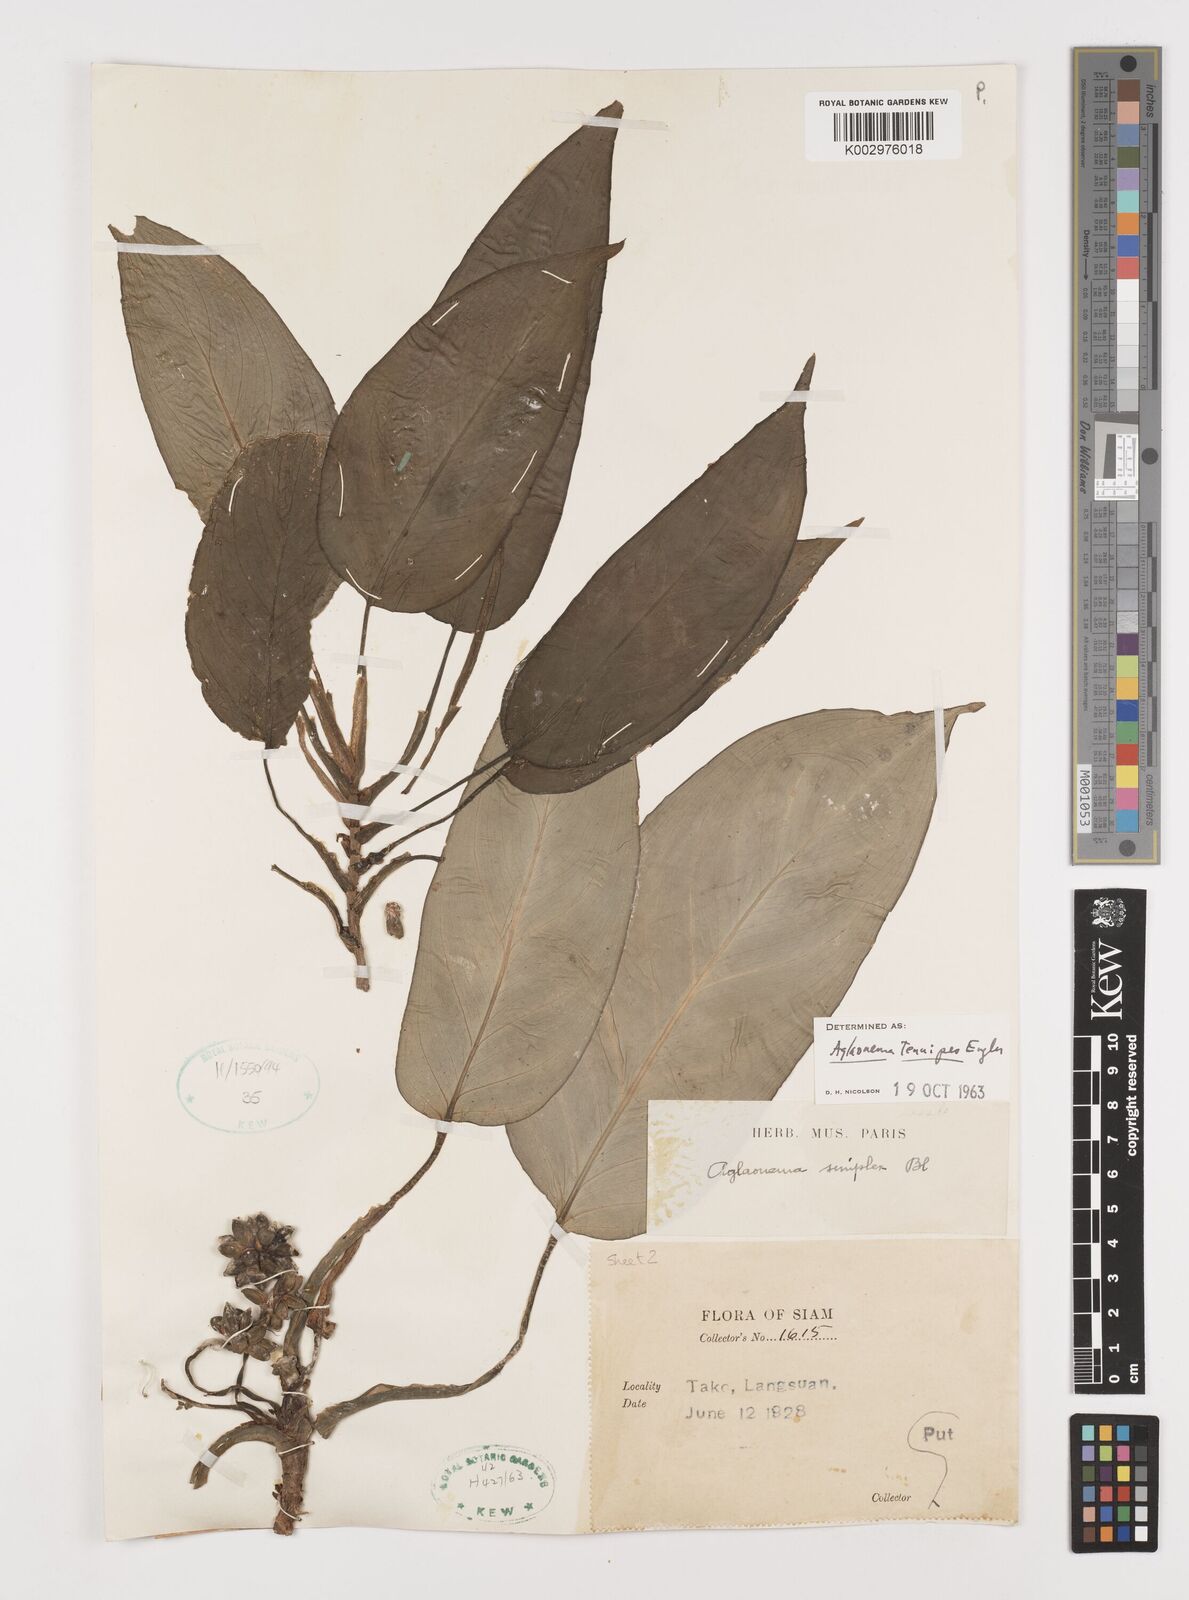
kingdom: Plantae
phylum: Tracheophyta
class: Liliopsida
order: Alismatales
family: Araceae
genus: Aglaonema
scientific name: Aglaonema simplex
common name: Malayan-sword
